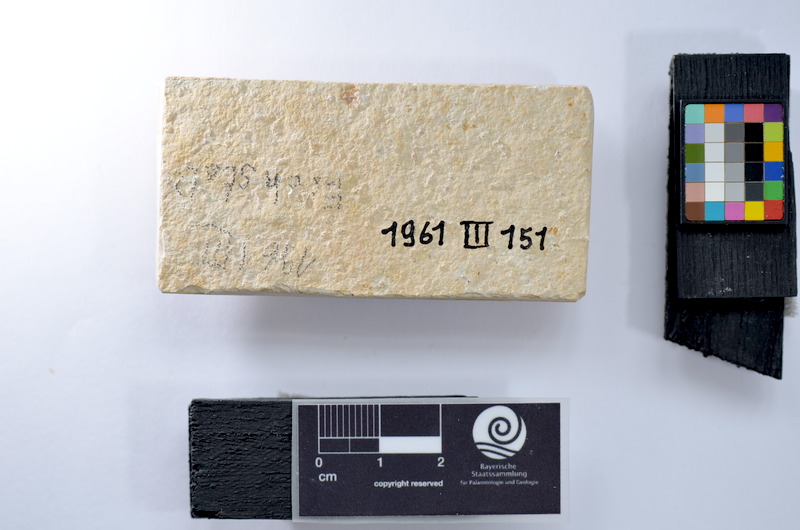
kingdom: Animalia
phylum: Chordata
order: Salmoniformes
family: Orthogonikleithridae
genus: Leptolepides
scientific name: Leptolepides
